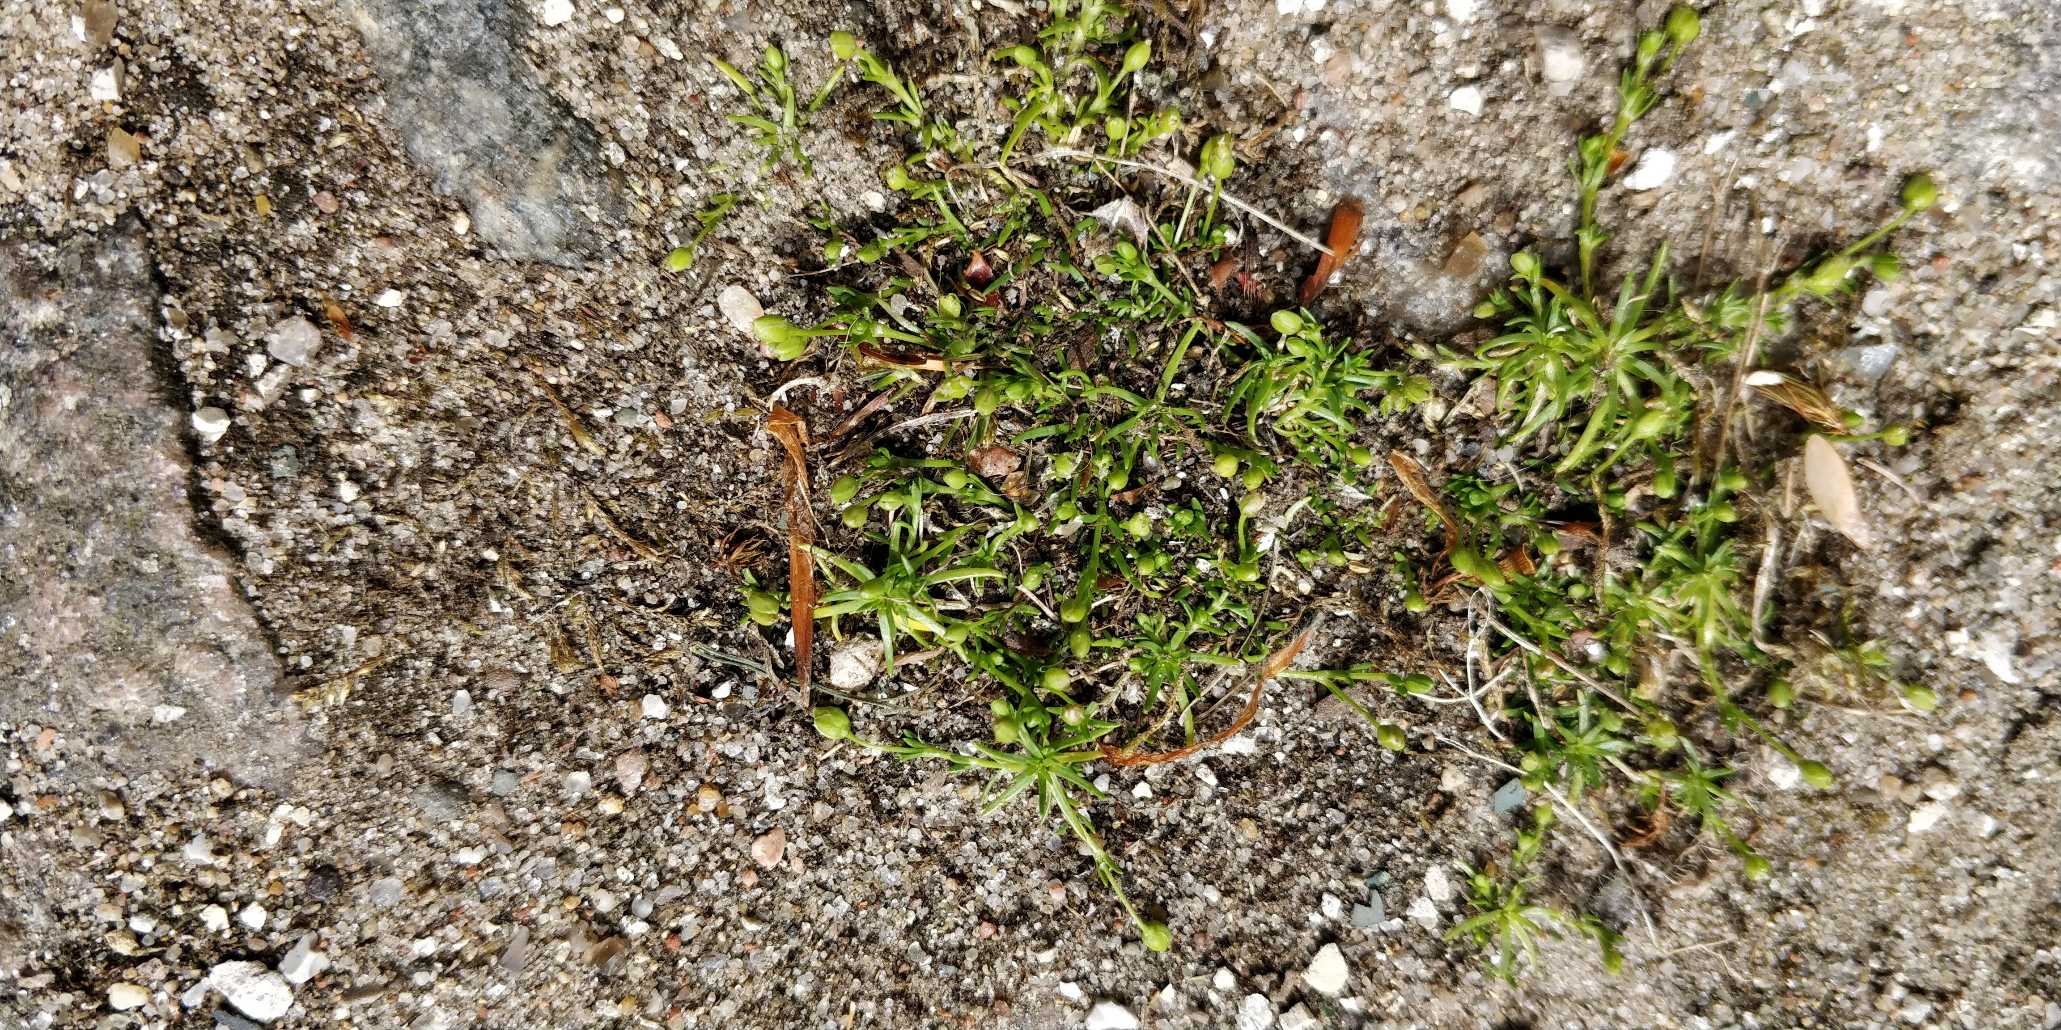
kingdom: Plantae
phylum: Tracheophyta
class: Magnoliopsida
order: Caryophyllales
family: Caryophyllaceae
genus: Sagina
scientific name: Sagina procumbens
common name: Almindelig firling
